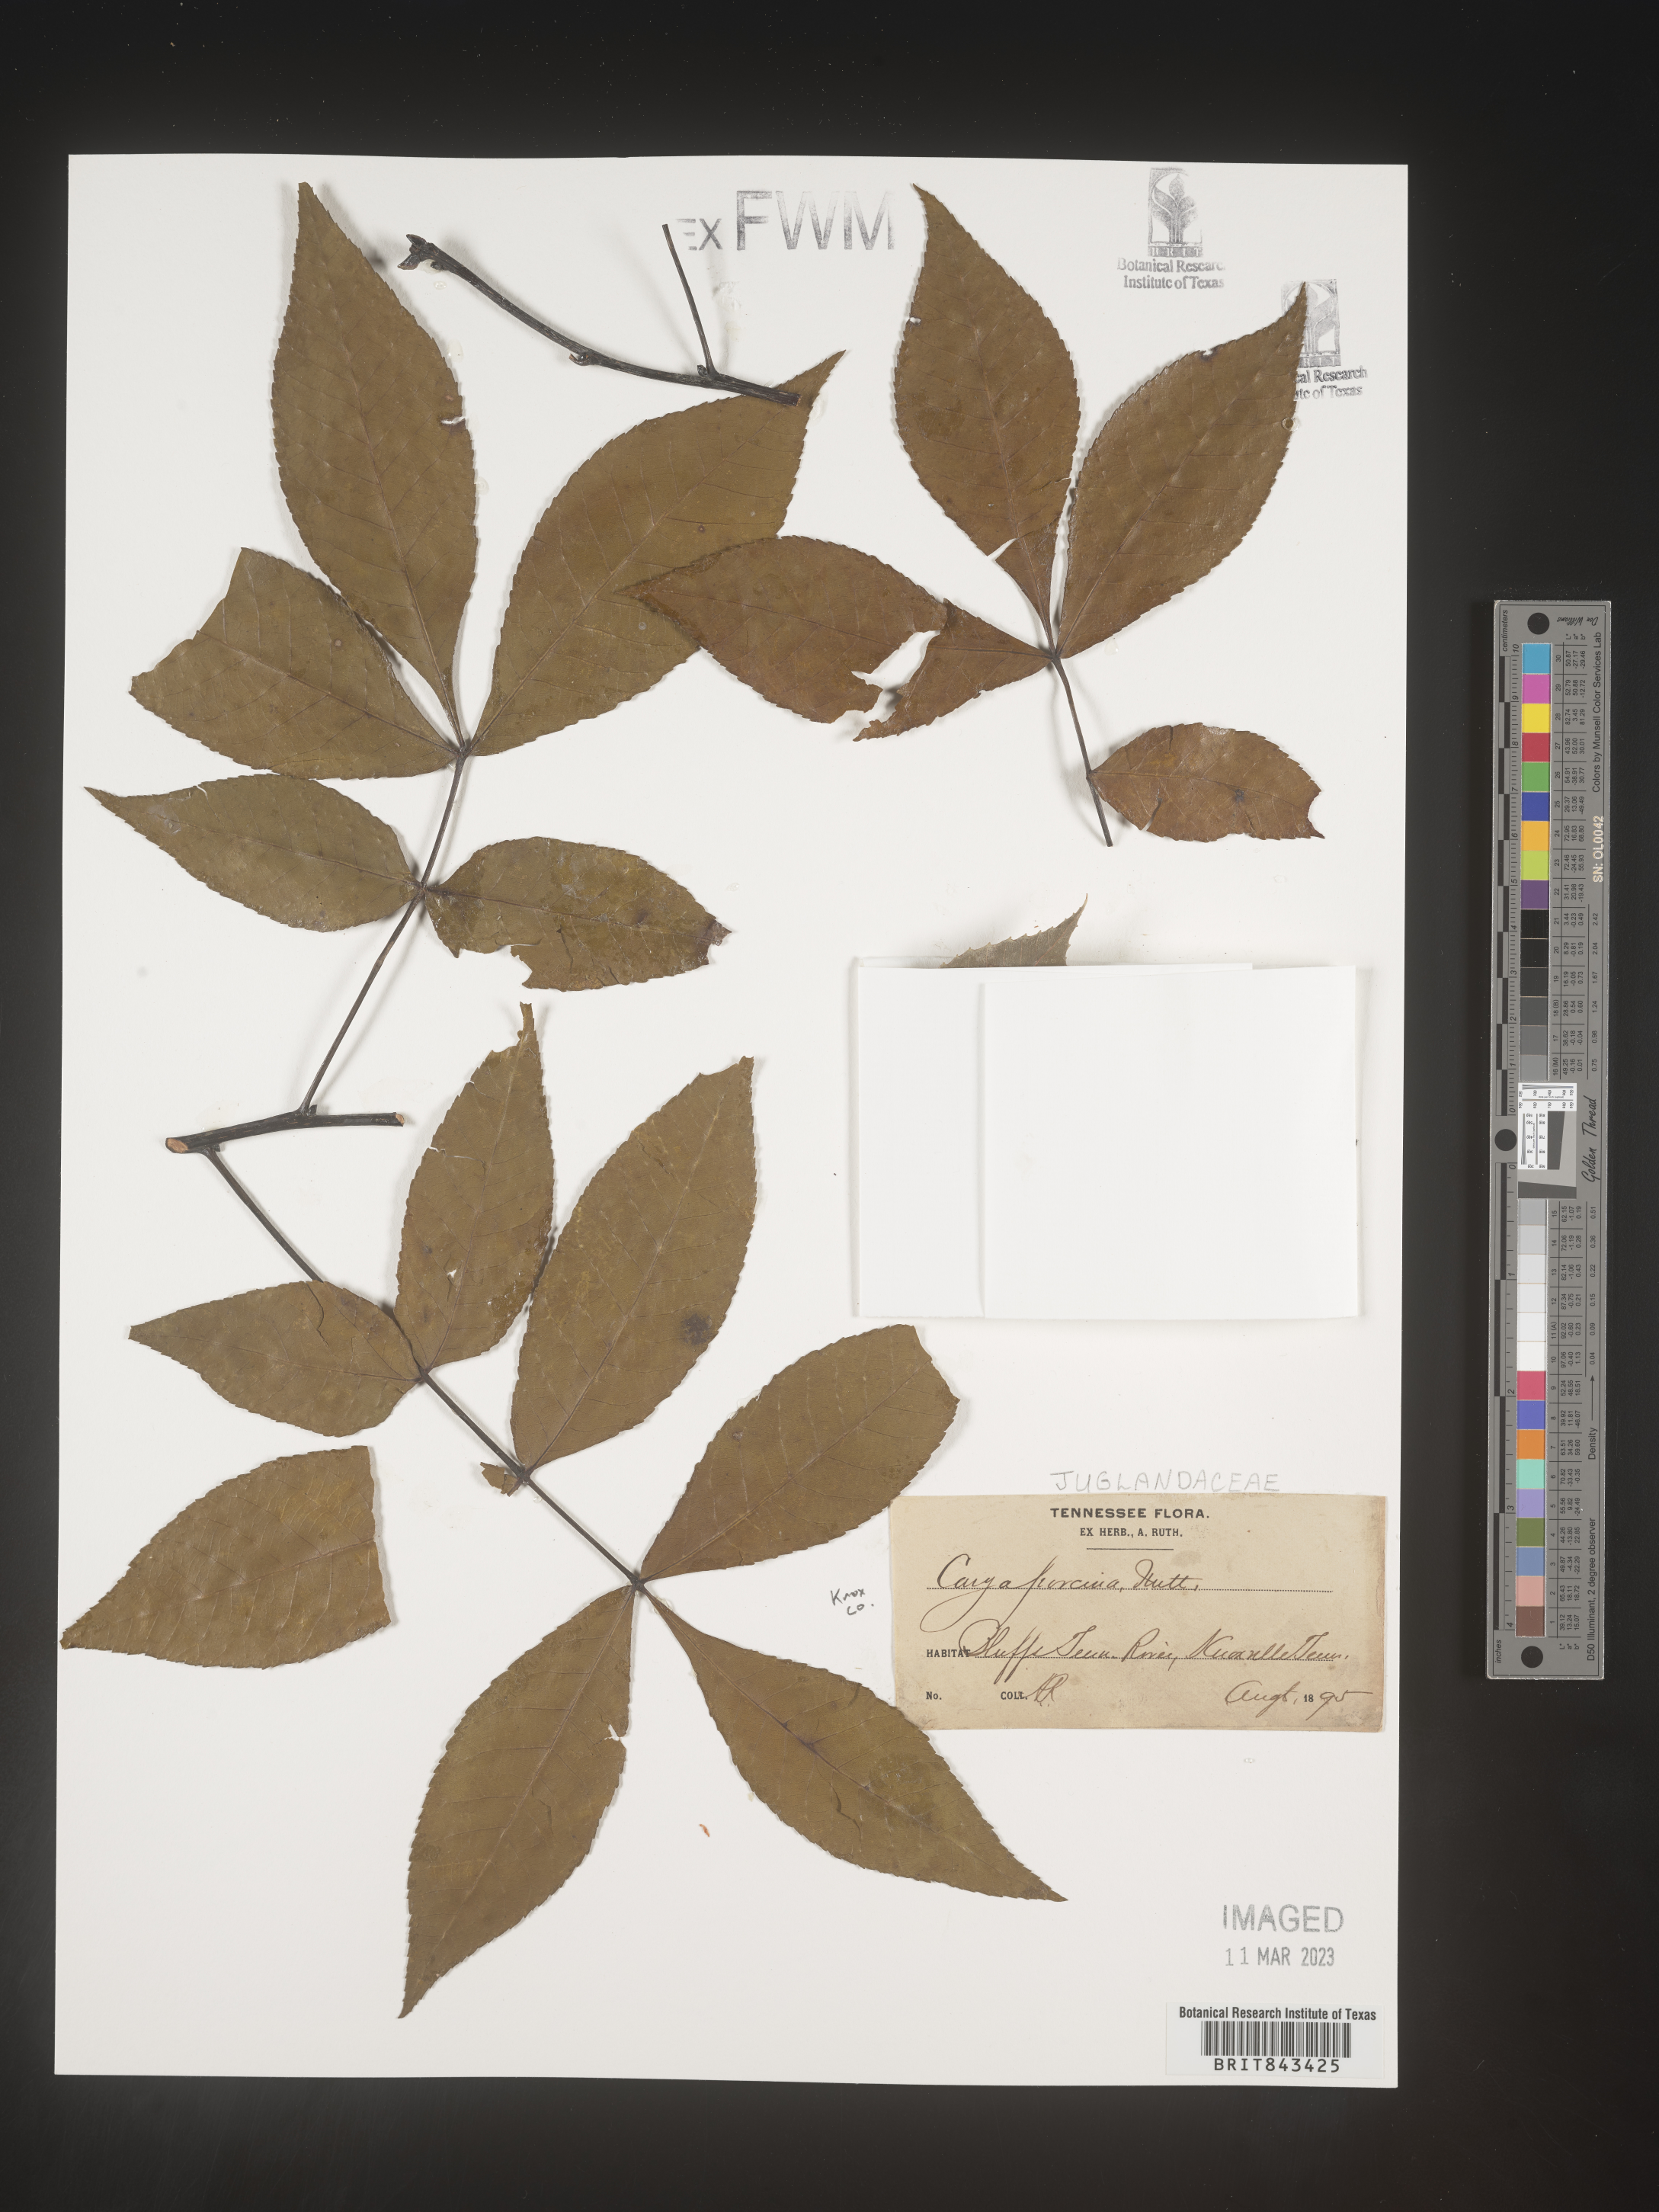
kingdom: Plantae
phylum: Tracheophyta
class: Magnoliopsida
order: Fagales
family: Juglandaceae
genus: Carya
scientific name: Carya glabra
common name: Pignut hickory
